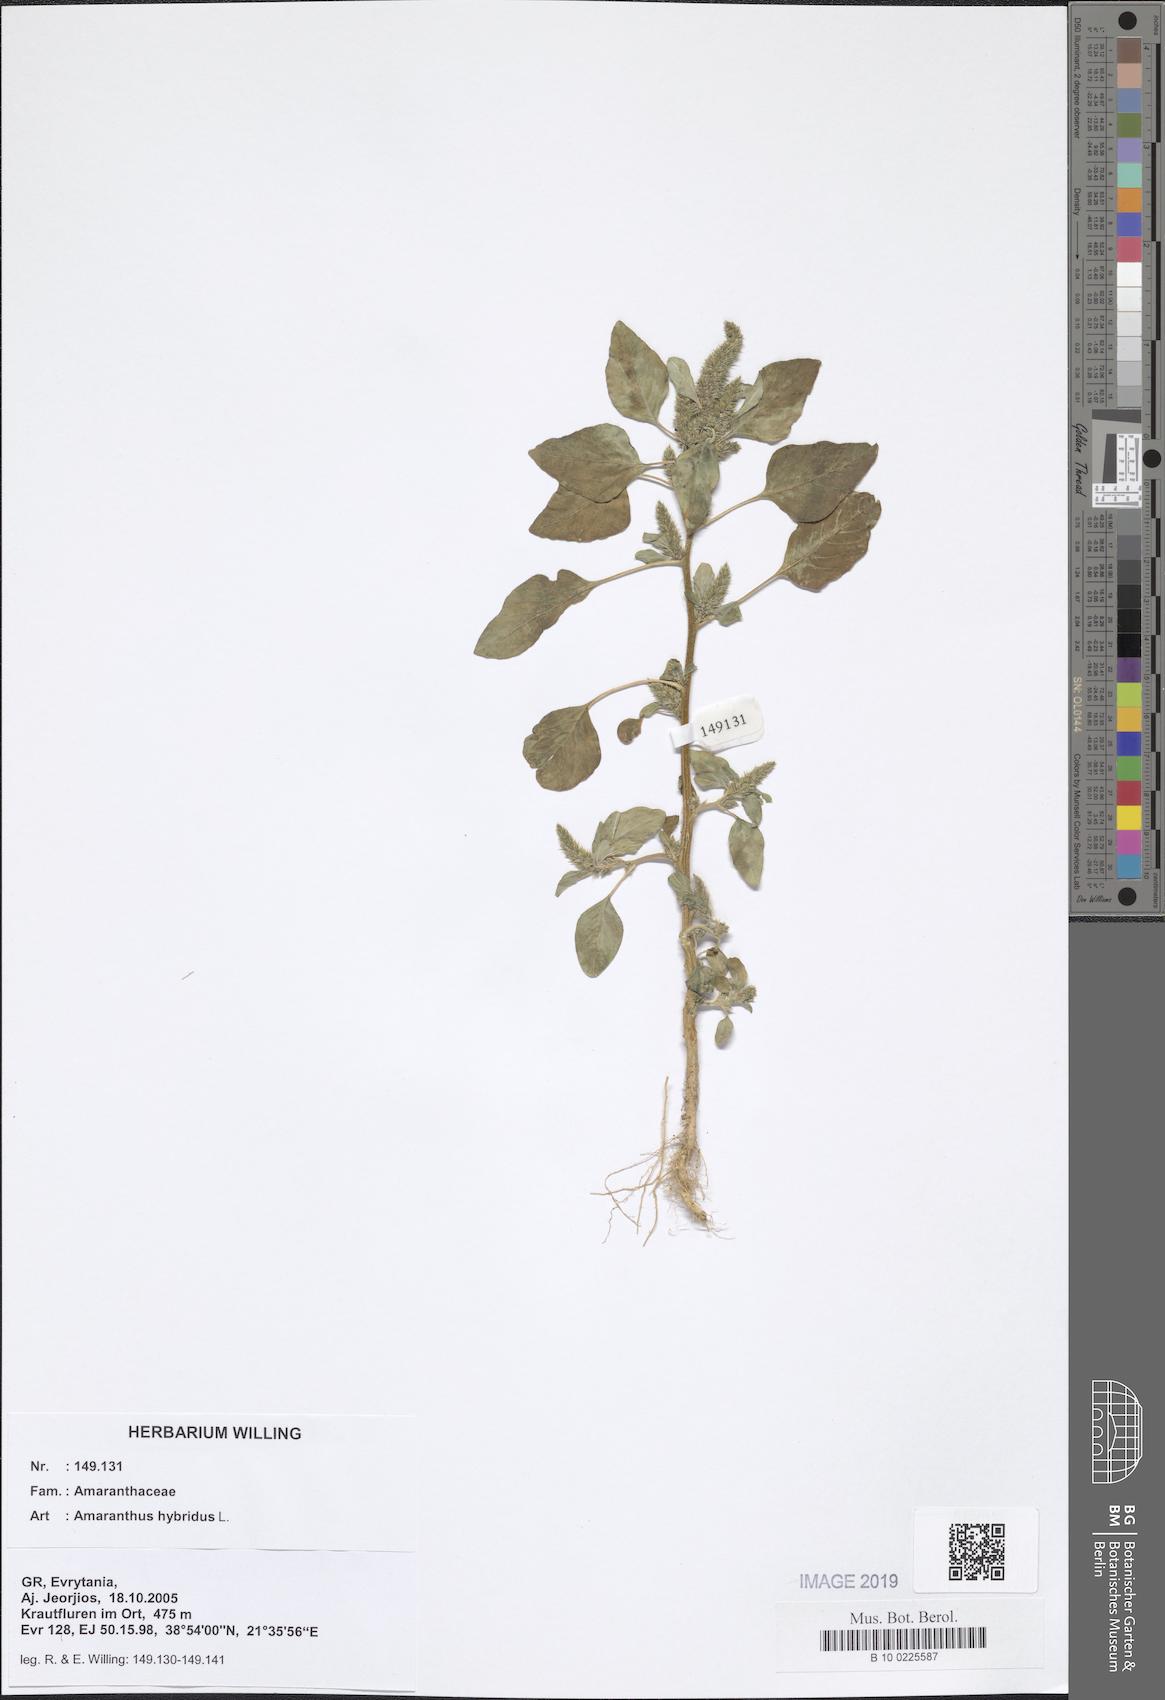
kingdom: Plantae
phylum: Tracheophyta
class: Magnoliopsida
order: Caryophyllales
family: Amaranthaceae
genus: Amaranthus
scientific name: Amaranthus hybridus
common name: Green amaranth
